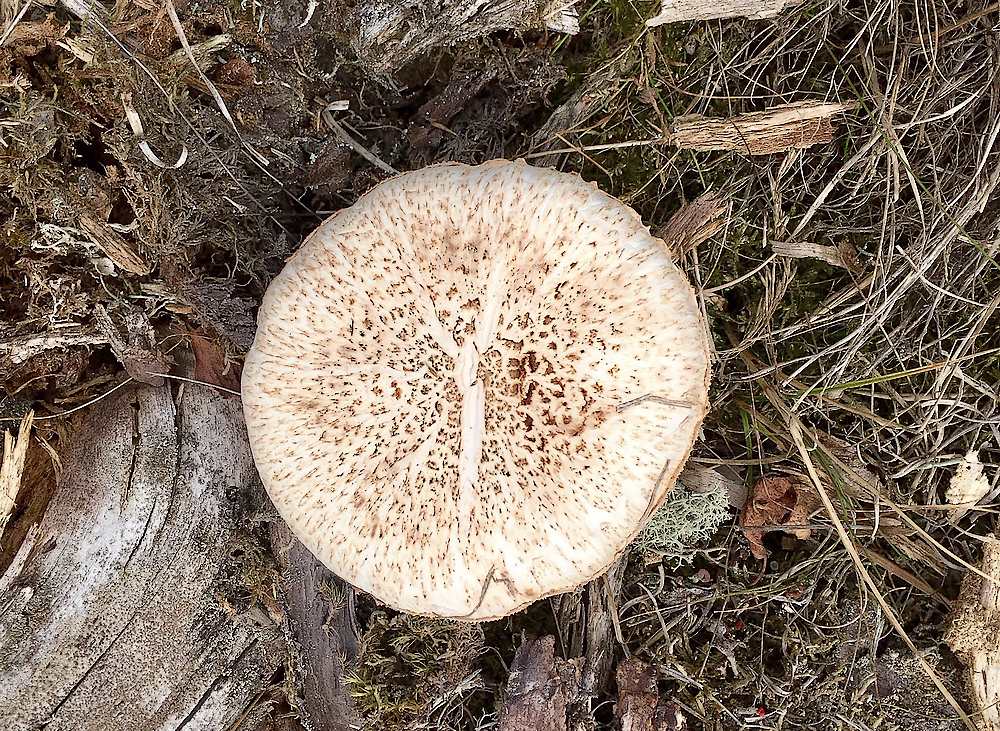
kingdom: Fungi
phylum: Basidiomycota
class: Agaricomycetes
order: Gloeophyllales
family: Gloeophyllaceae
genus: Neolentinus
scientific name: Neolentinus lepideus
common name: skællet sejhat
